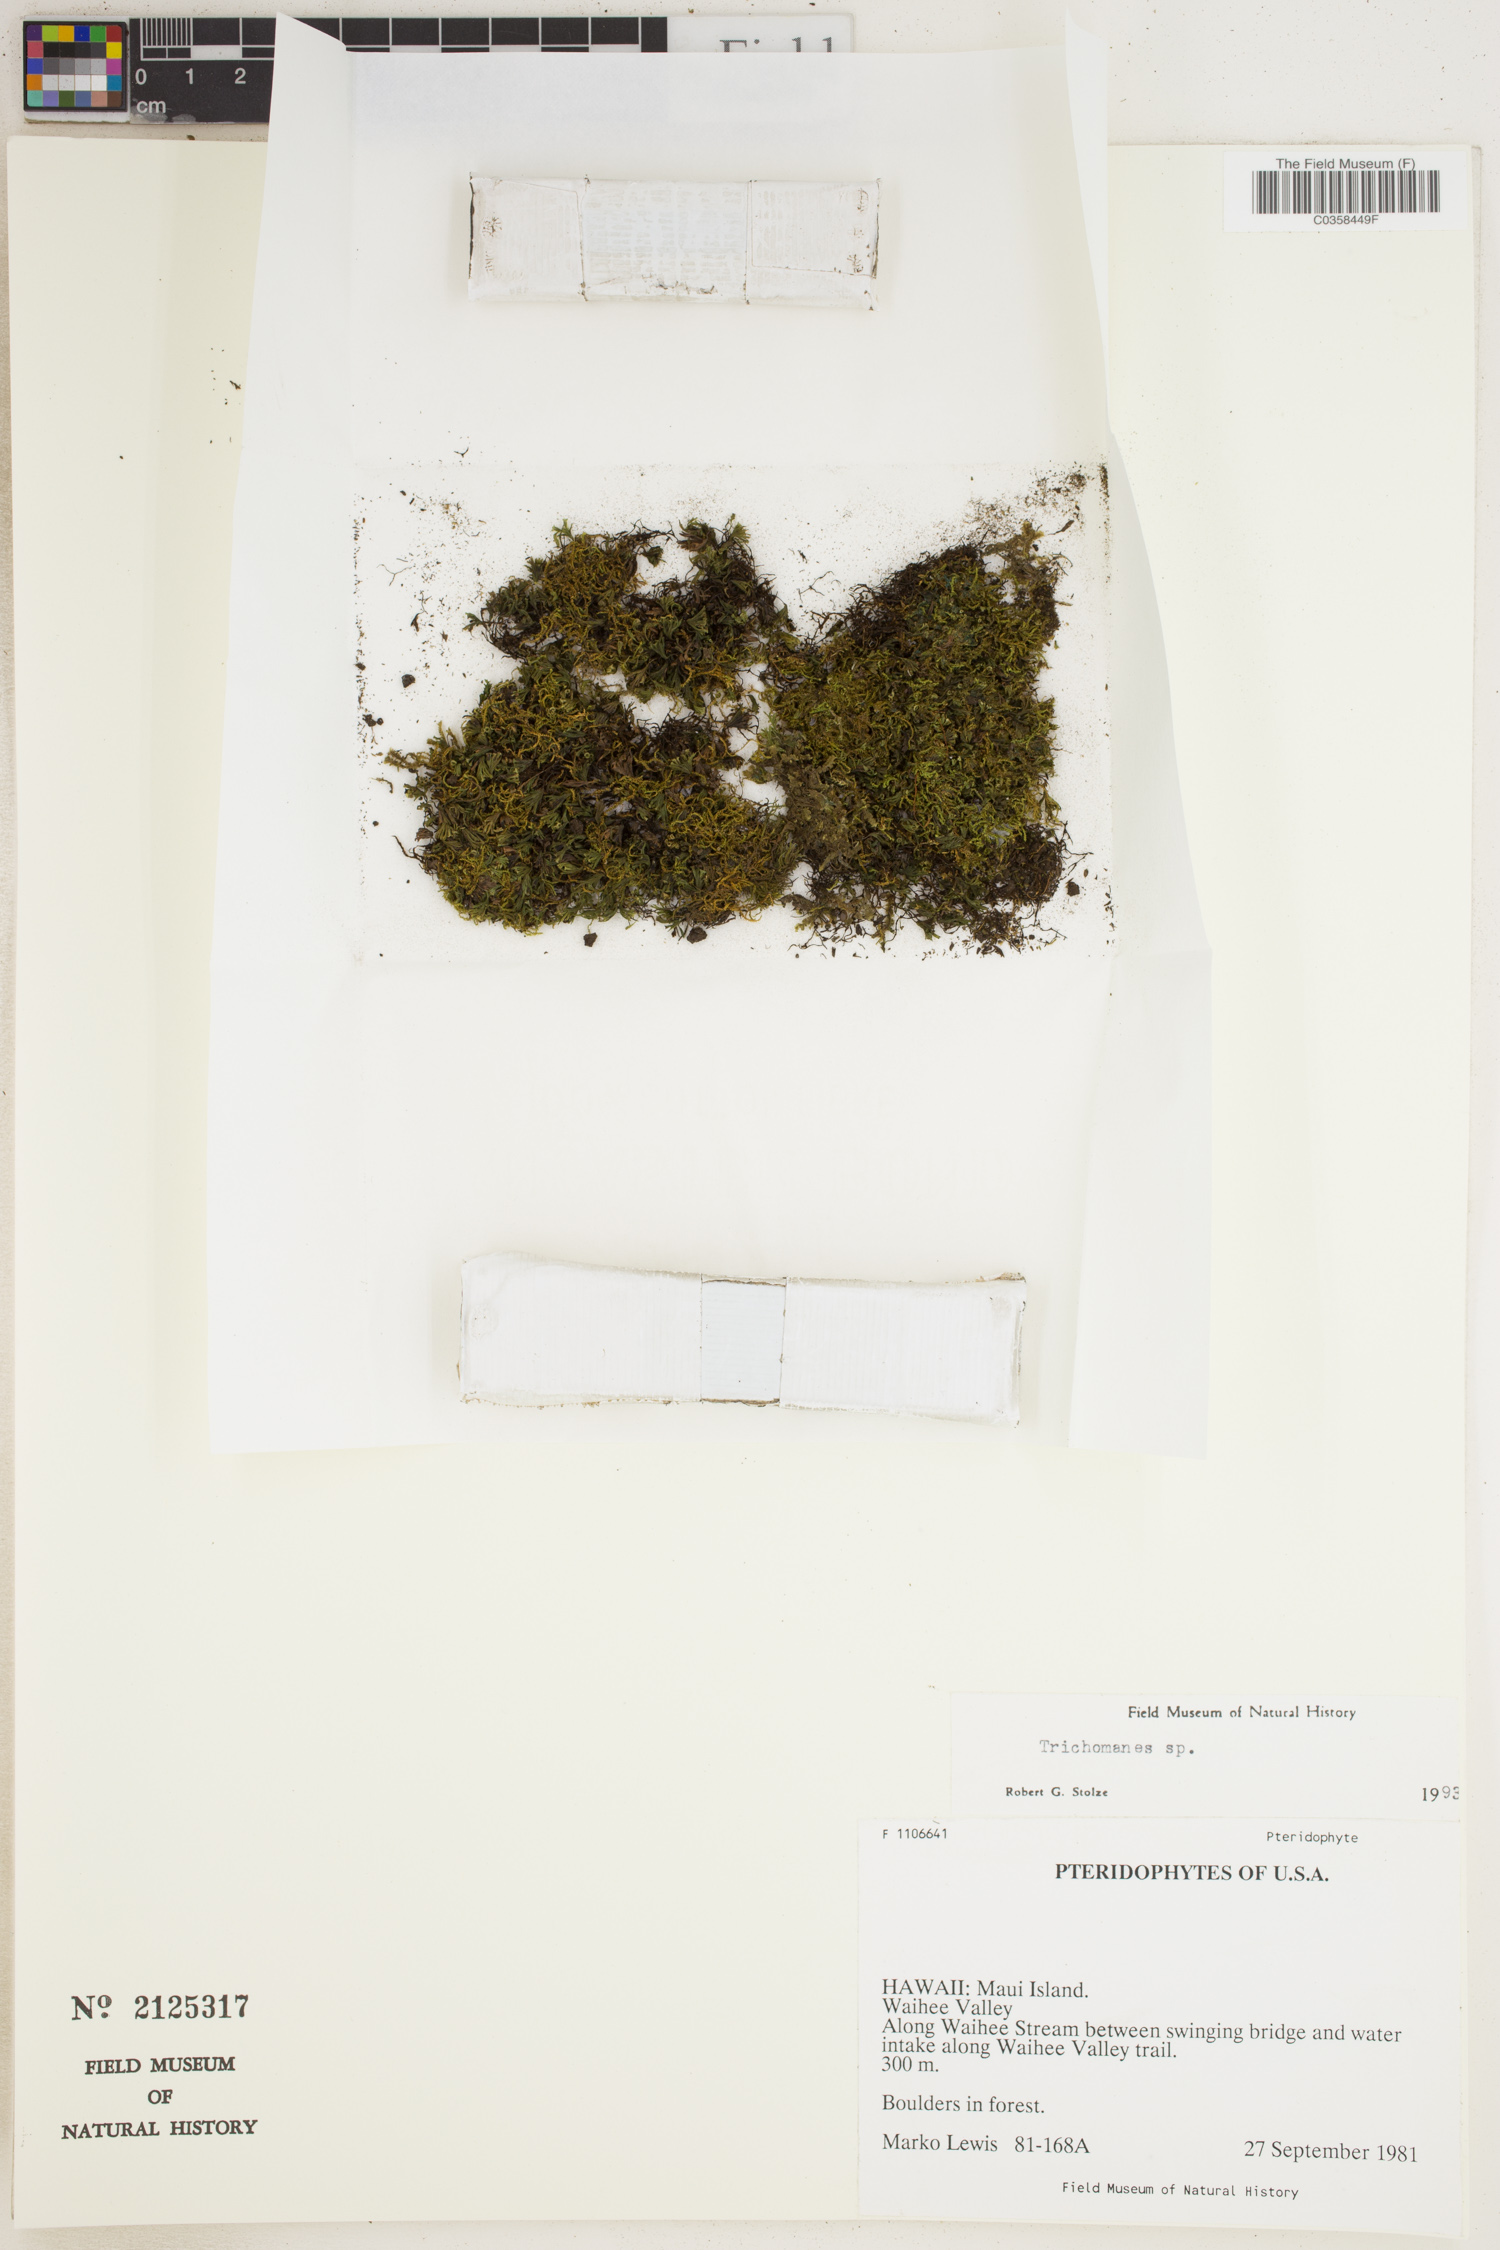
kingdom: Plantae
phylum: Tracheophyta
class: Polypodiopsida
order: Hymenophyllales
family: Hymenophyllaceae
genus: Trichomanes
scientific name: Trichomanes
